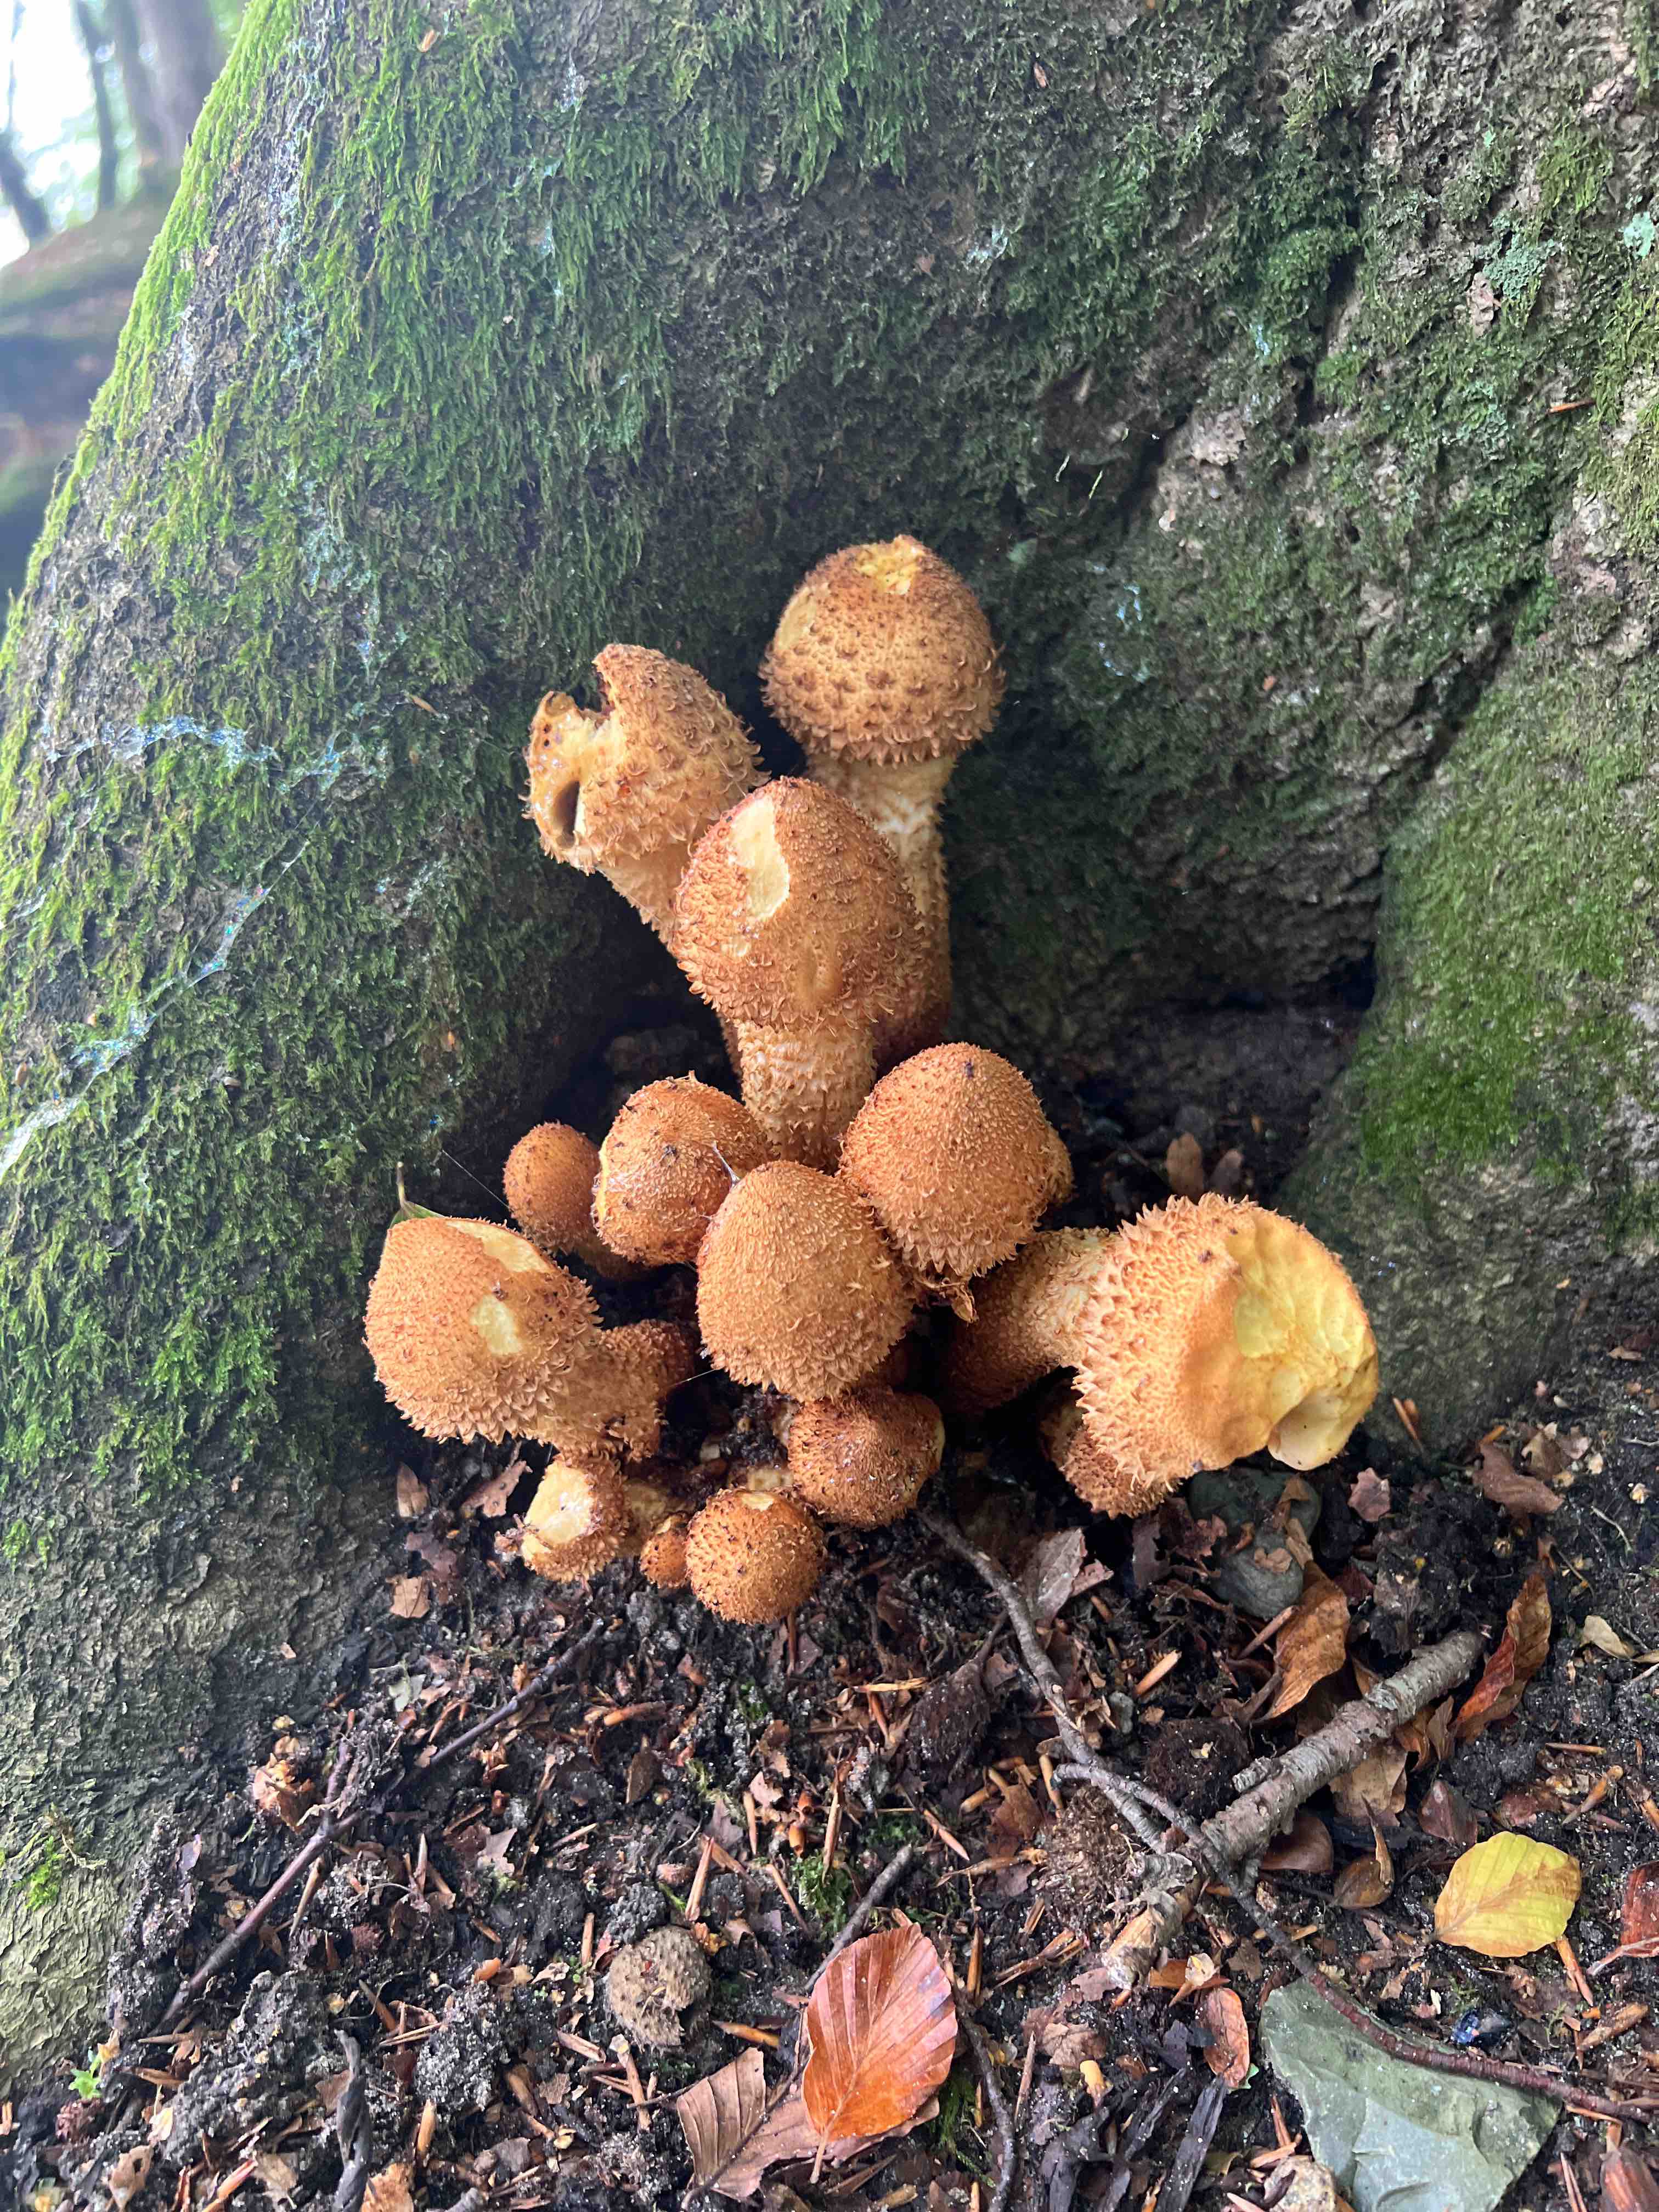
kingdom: Fungi
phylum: Basidiomycota
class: Agaricomycetes
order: Agaricales
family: Strophariaceae
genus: Pholiota
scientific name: Pholiota squarrosa
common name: krumskællet skælhat
